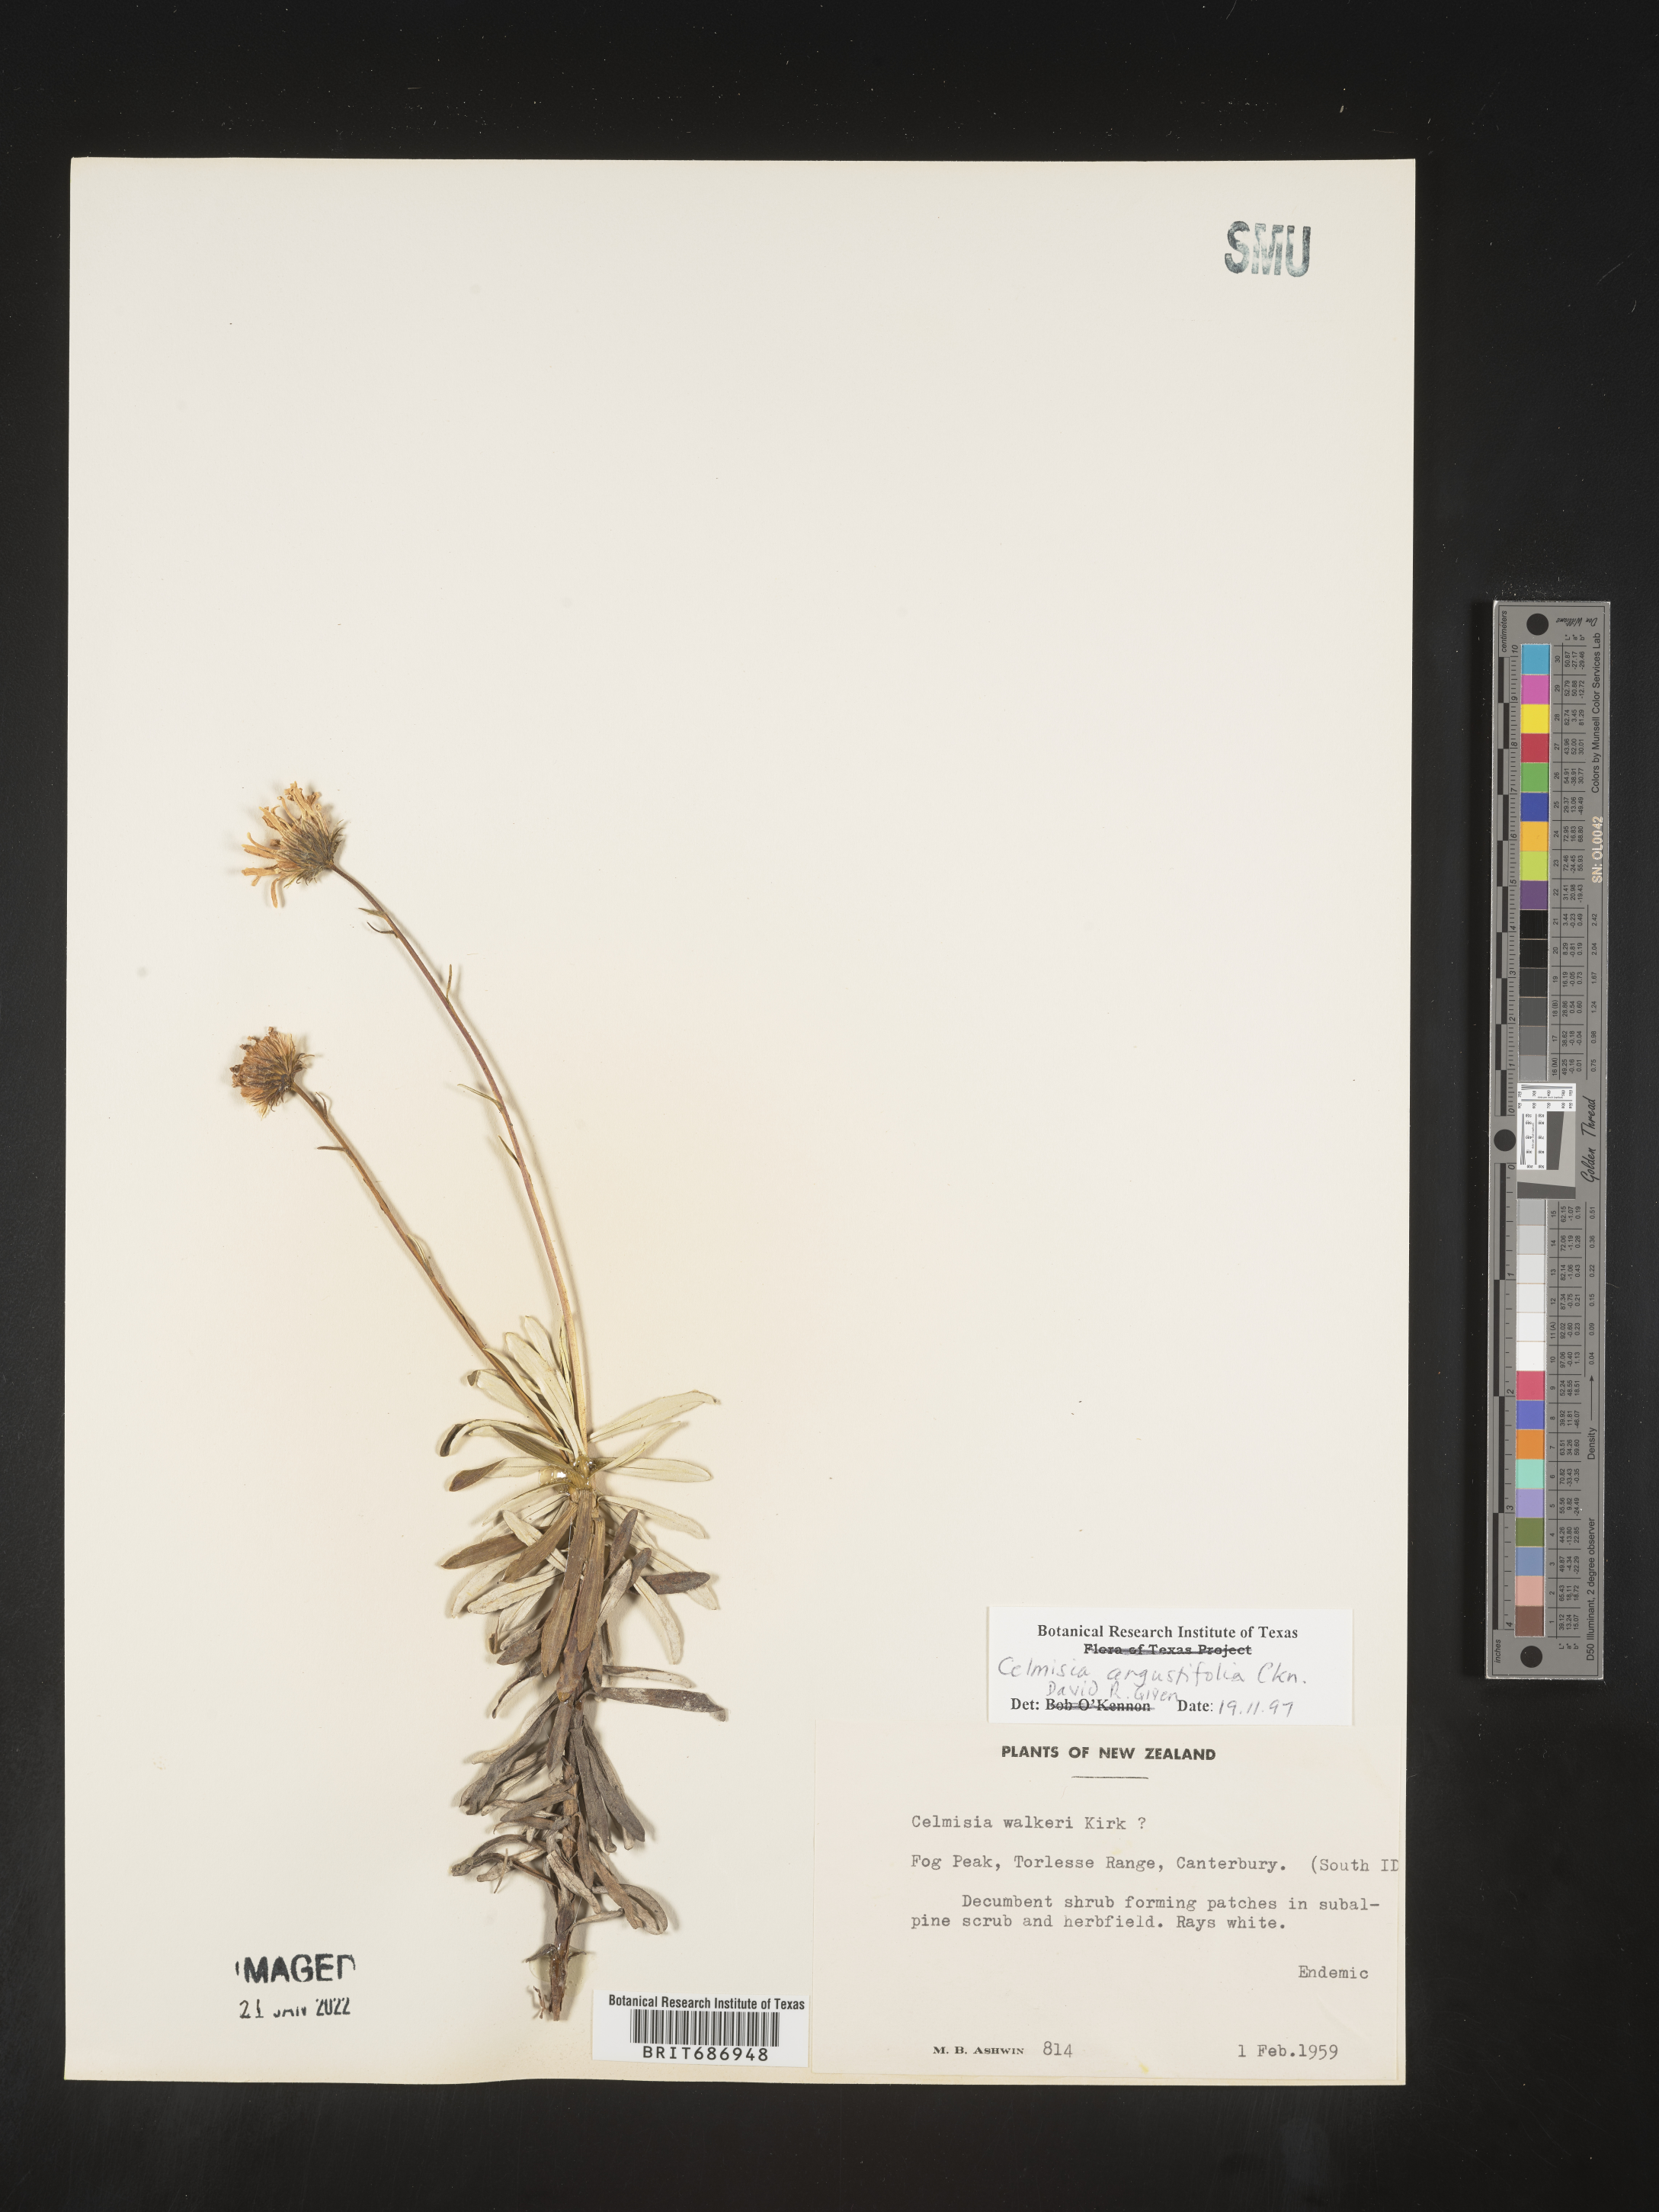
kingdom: Plantae
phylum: Tracheophyta
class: Magnoliopsida
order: Asterales
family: Asteraceae
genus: Celmisia
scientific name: Celmisia
